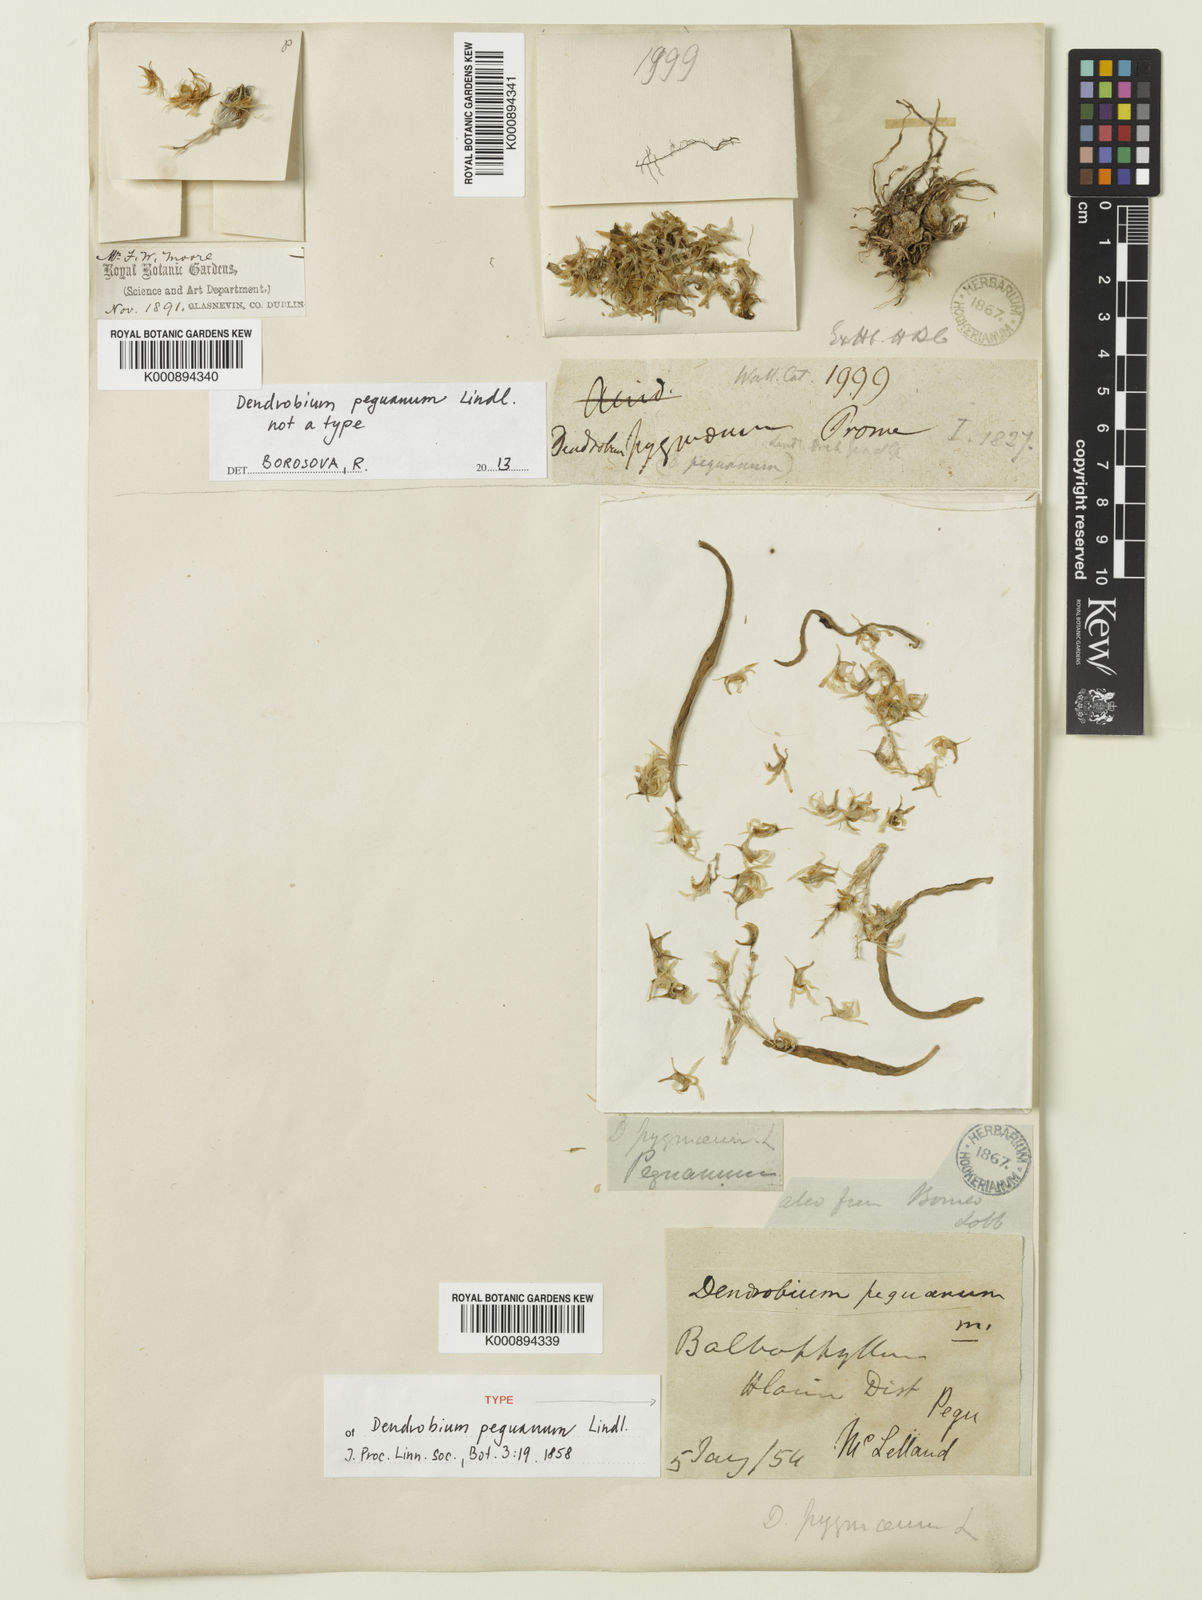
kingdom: Plantae
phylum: Tracheophyta
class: Liliopsida
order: Asparagales
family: Orchidaceae
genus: Dendrobium
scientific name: Dendrobium peguanum
